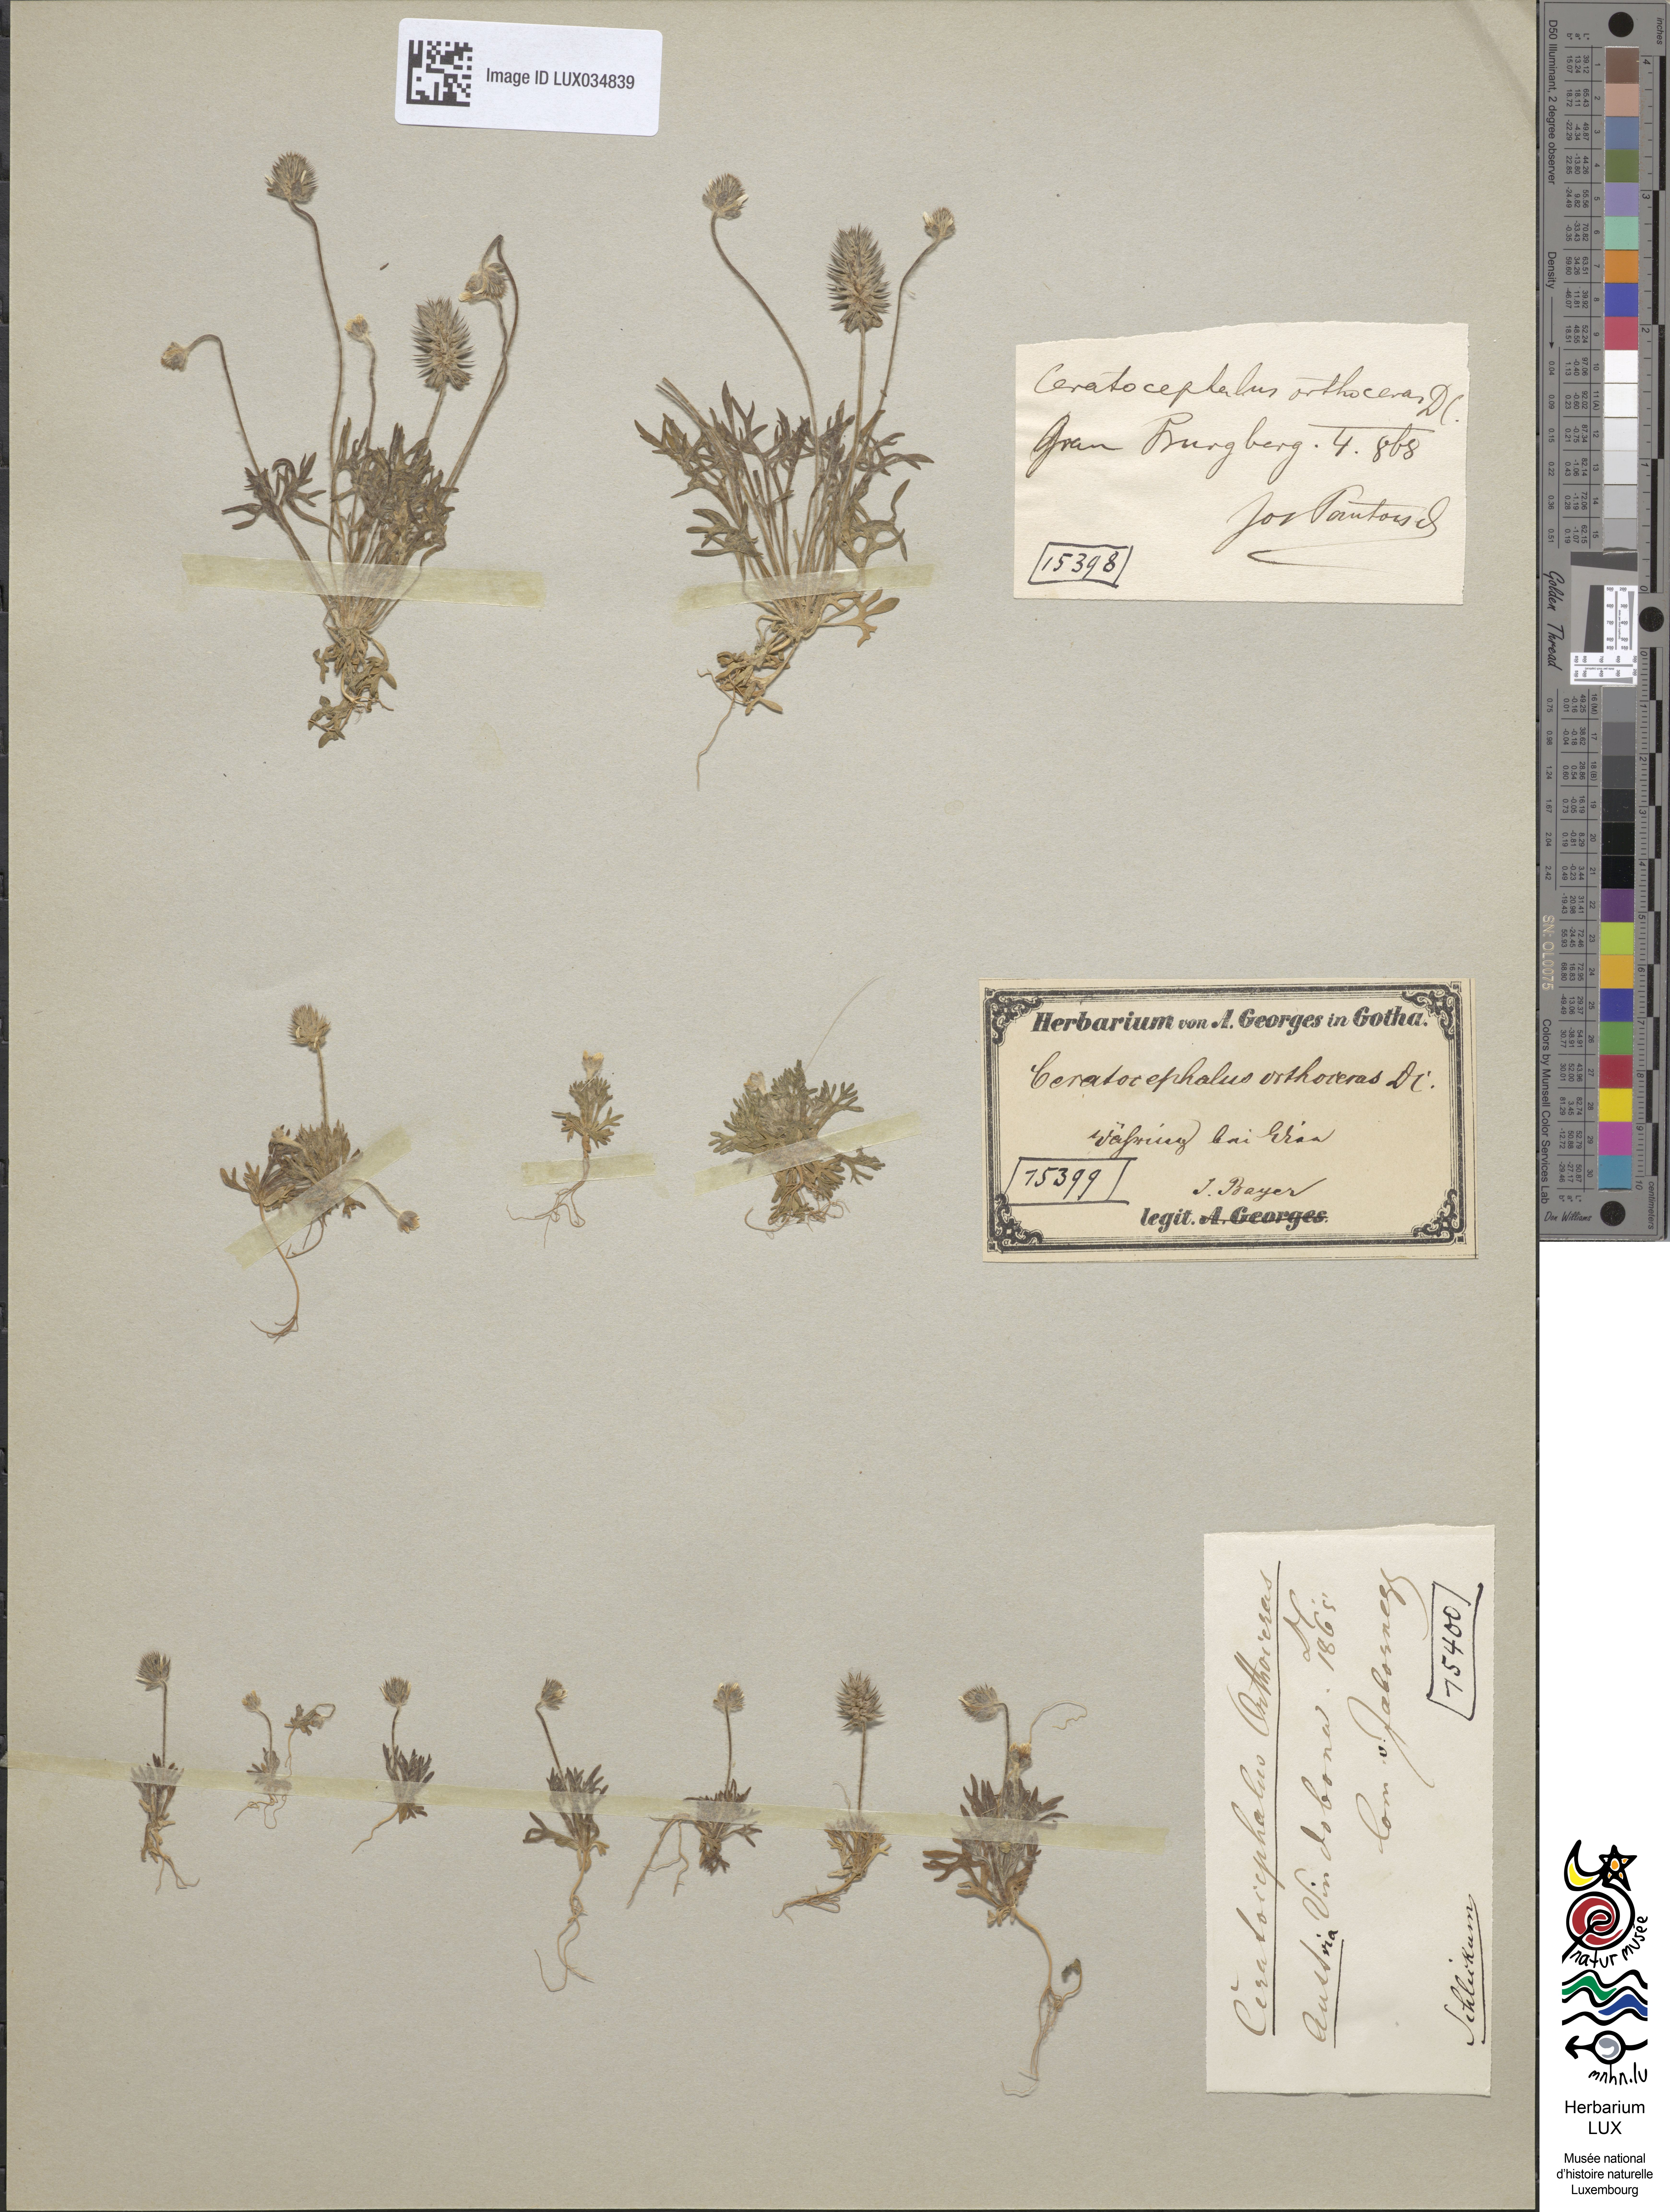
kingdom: Plantae
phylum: Tracheophyta
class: Magnoliopsida
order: Ranunculales
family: Ranunculaceae
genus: Ceratocephala
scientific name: Ceratocephala orthoceras
